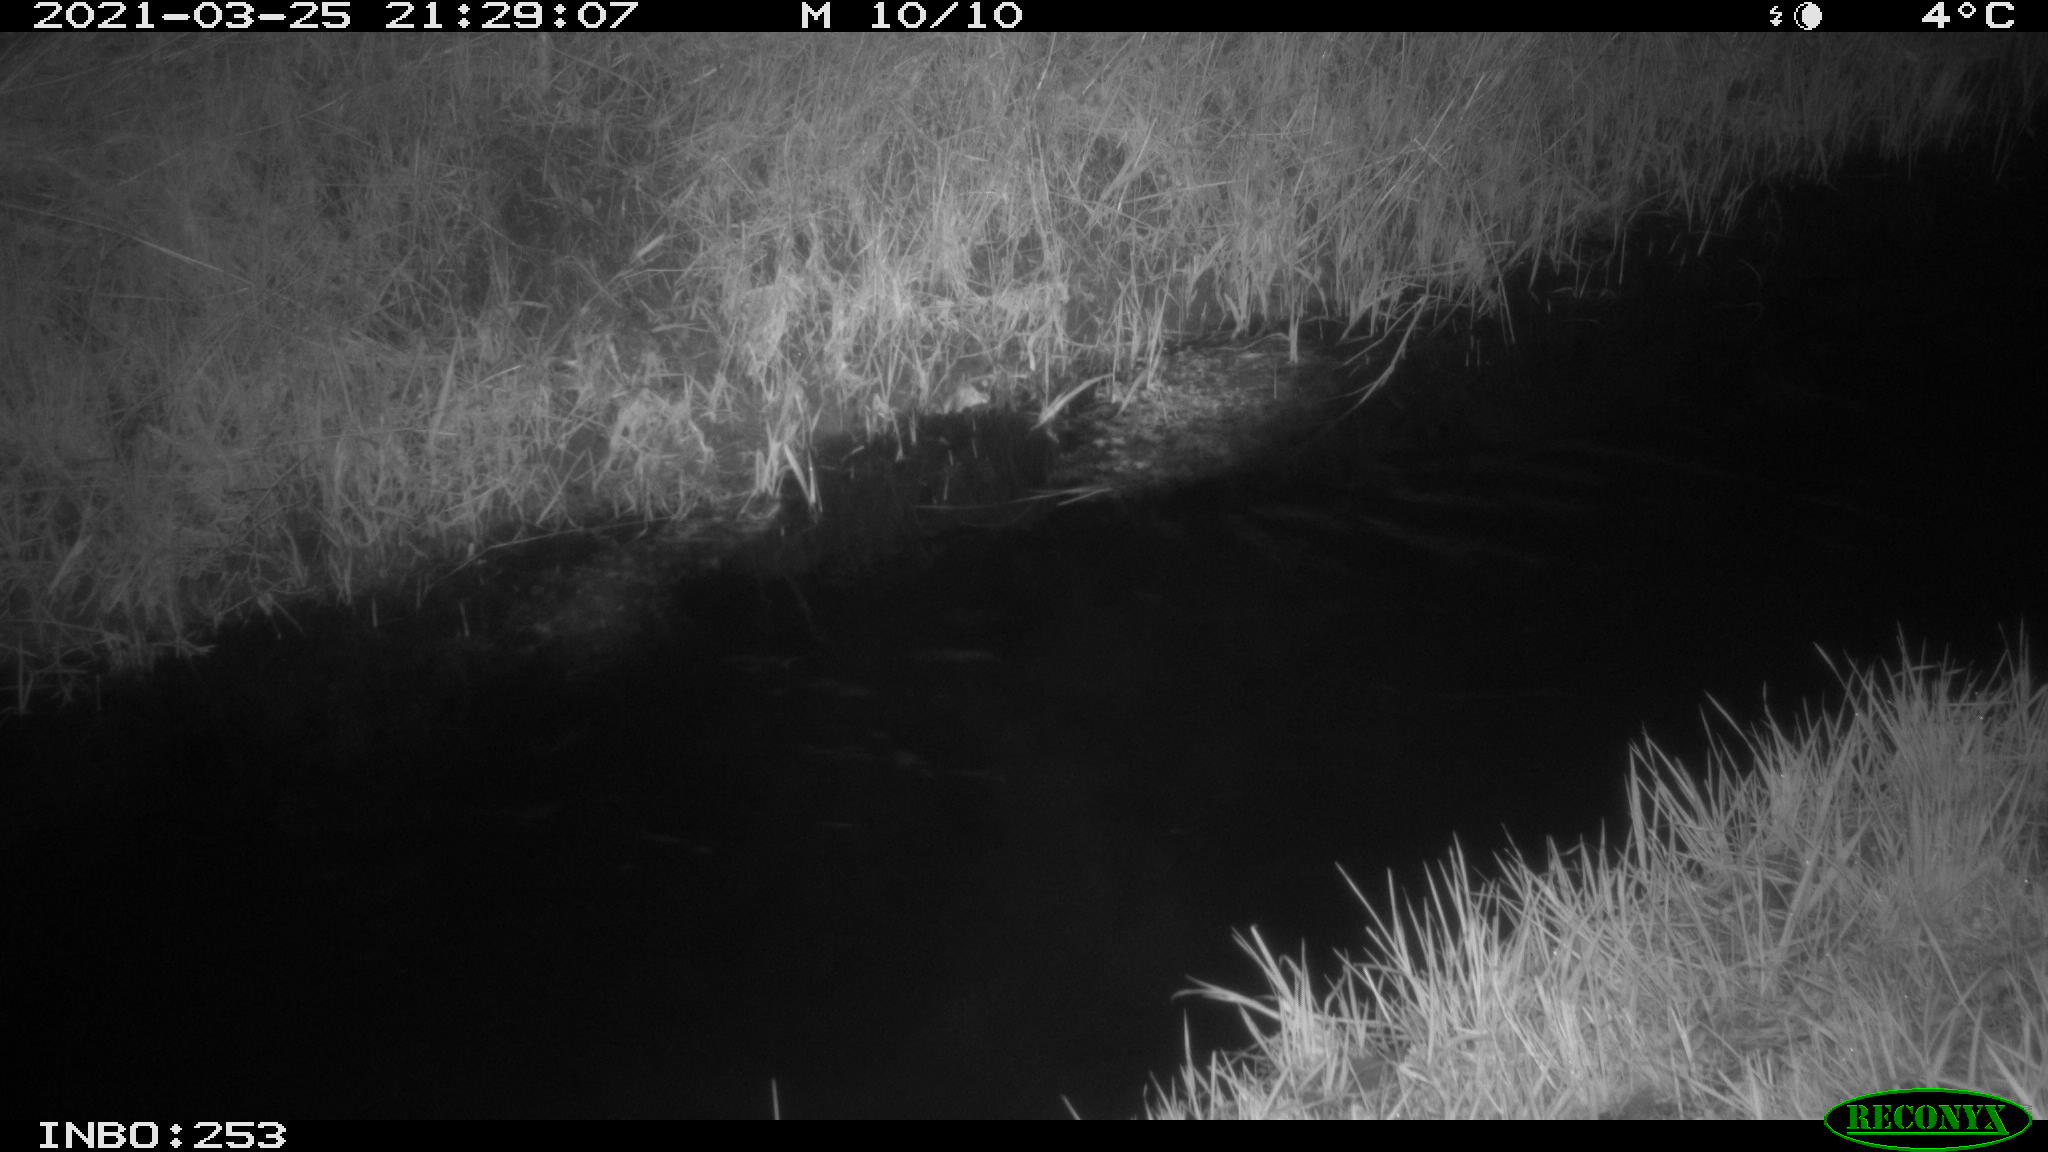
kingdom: Animalia
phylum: Chordata
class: Aves
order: Anseriformes
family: Anatidae
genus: Anas
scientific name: Anas platyrhynchos
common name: Mallard
